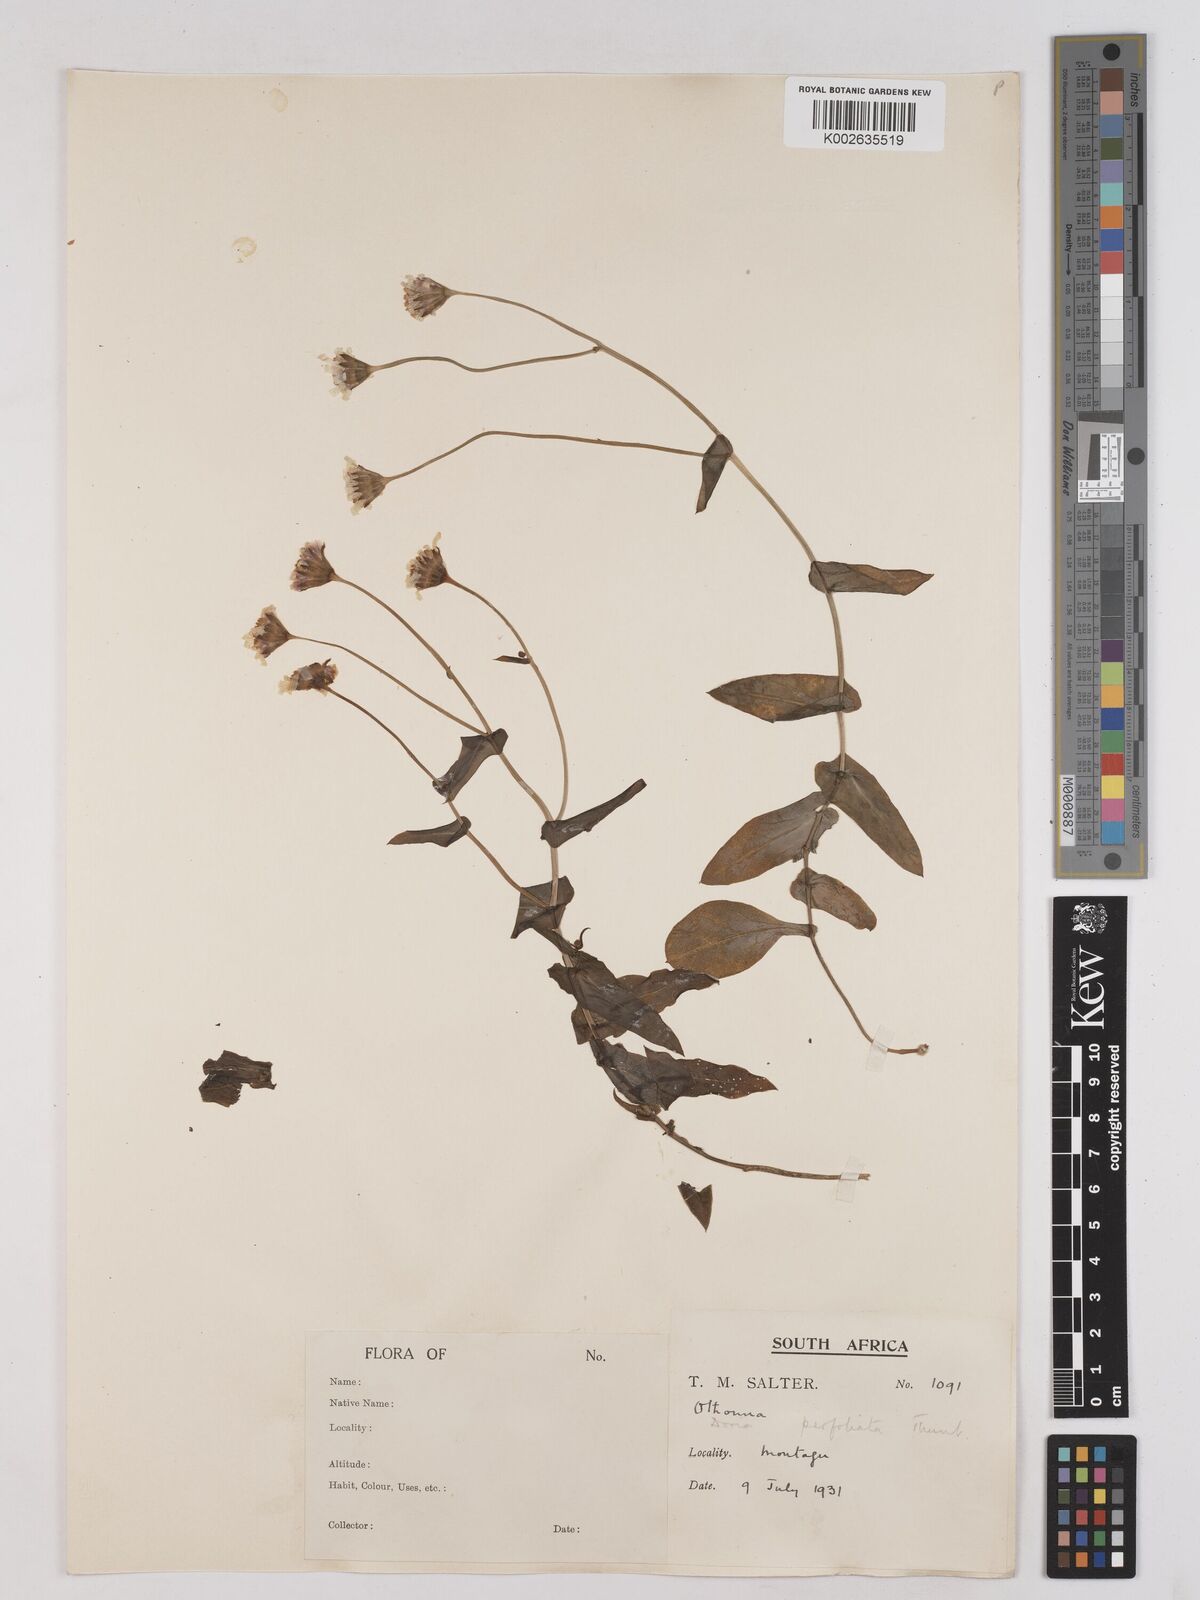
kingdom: Plantae
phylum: Tracheophyta
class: Magnoliopsida
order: Asterales
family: Asteraceae
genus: Othonna
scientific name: Othonna perfoliata
